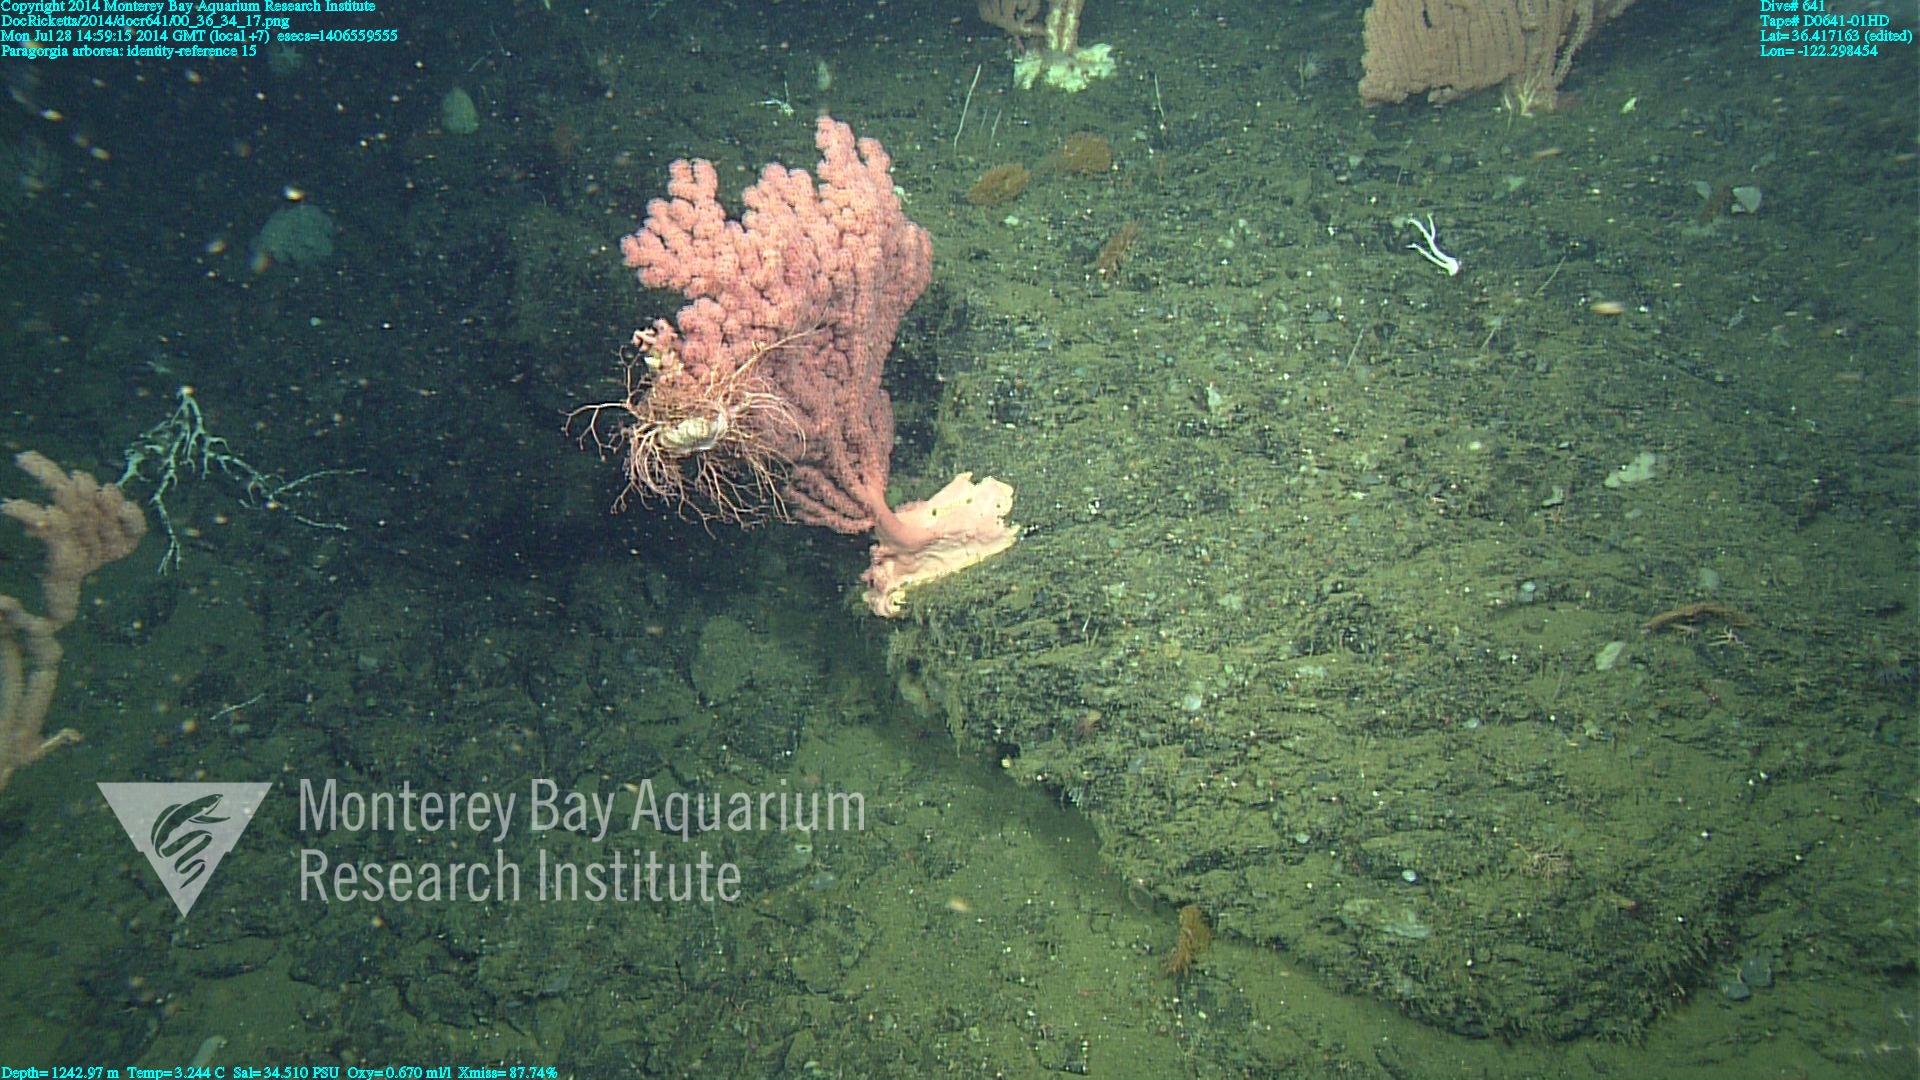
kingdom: Animalia
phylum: Cnidaria
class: Anthozoa
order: Scleralcyonacea
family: Coralliidae
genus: Paragorgia
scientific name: Paragorgia arborea
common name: Bubble gum coral
